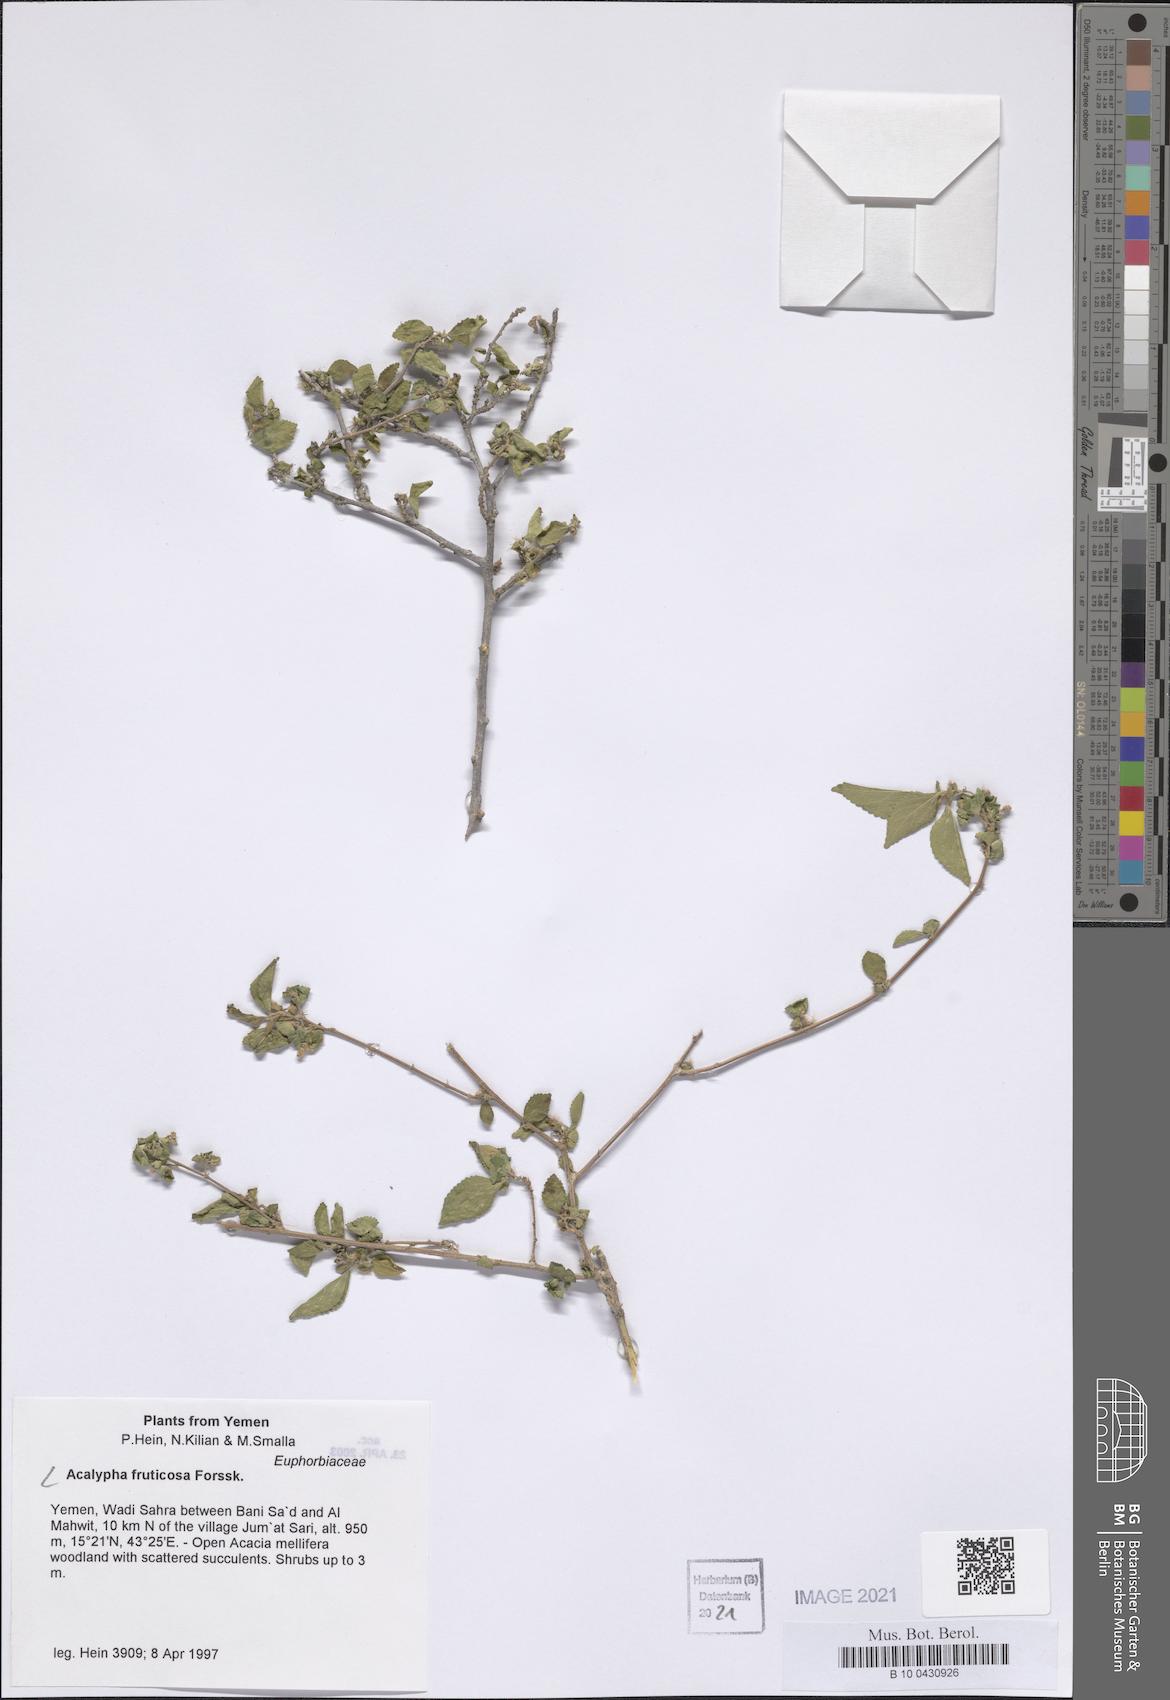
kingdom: Plantae
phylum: Tracheophyta
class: Magnoliopsida
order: Malpighiales
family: Euphorbiaceae
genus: Acalypha
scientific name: Acalypha fruticosa
